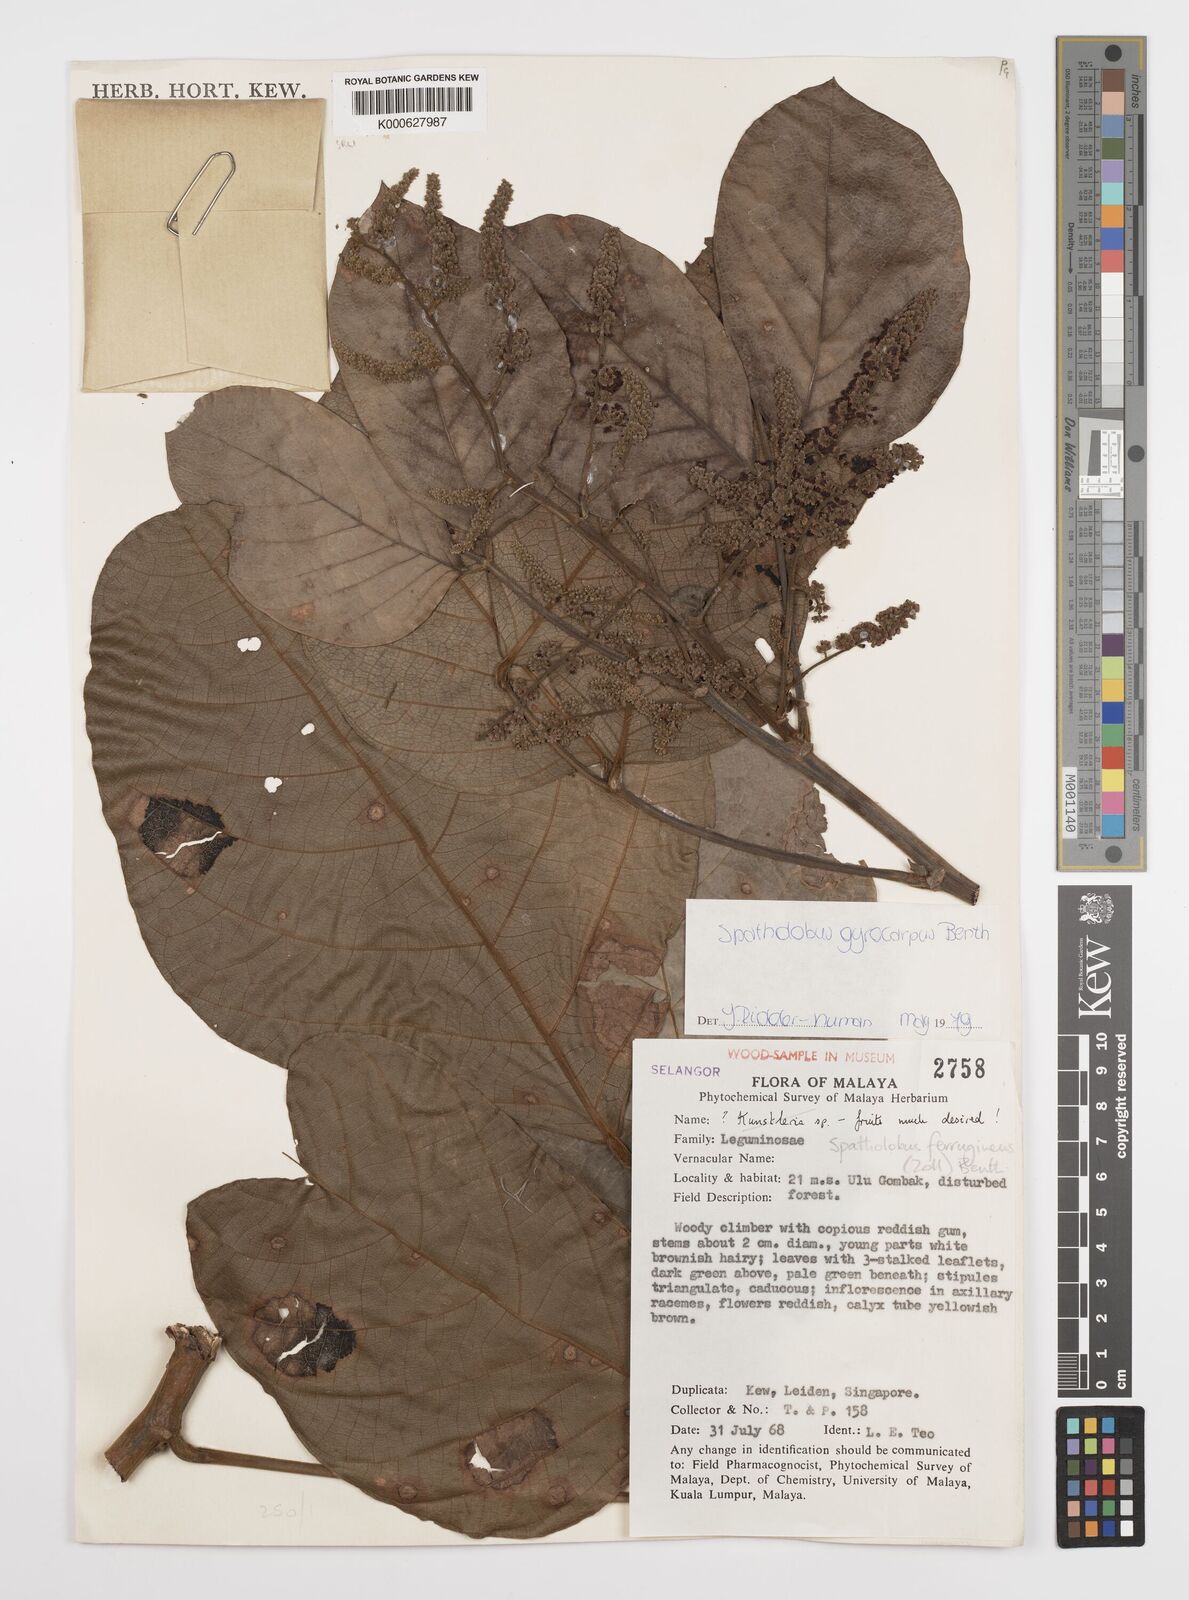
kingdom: Plantae
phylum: Tracheophyta
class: Magnoliopsida
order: Fabales
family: Fabaceae
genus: Spatholobus
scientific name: Spatholobus gyrocarpus
